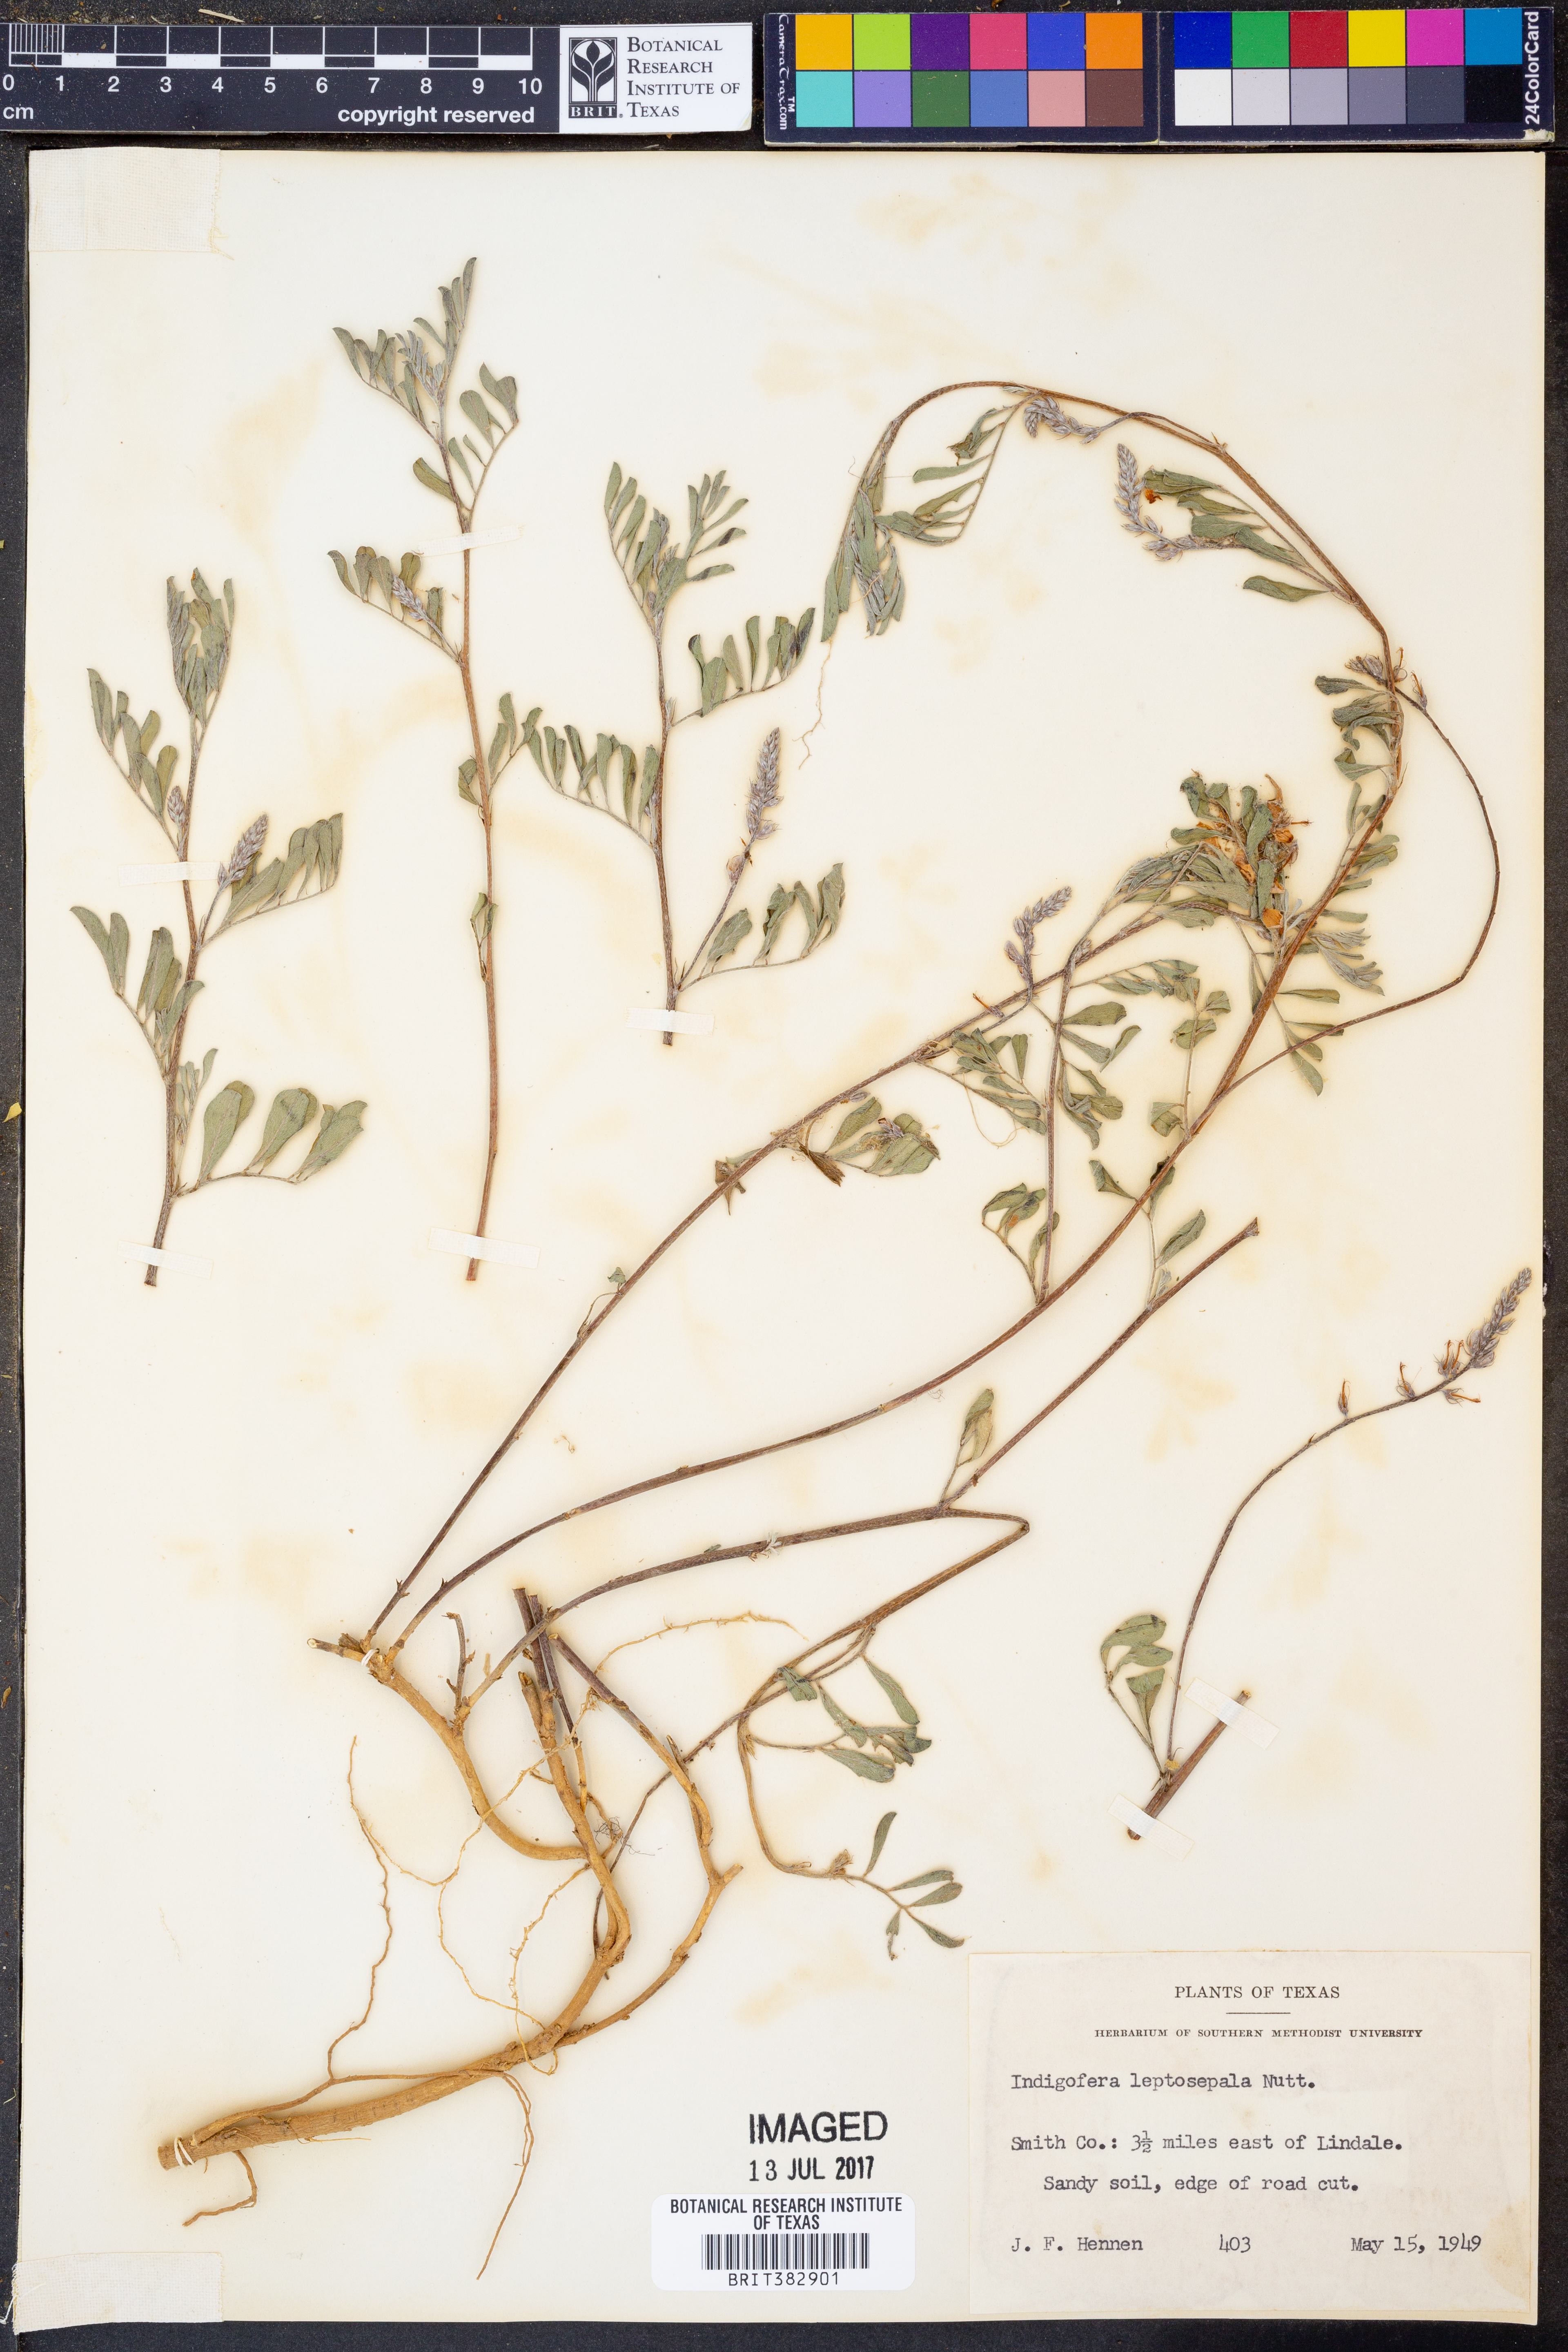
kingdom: Plantae
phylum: Tracheophyta
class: Magnoliopsida
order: Fabales
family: Fabaceae
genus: Indigofera
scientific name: Indigofera argutidens
